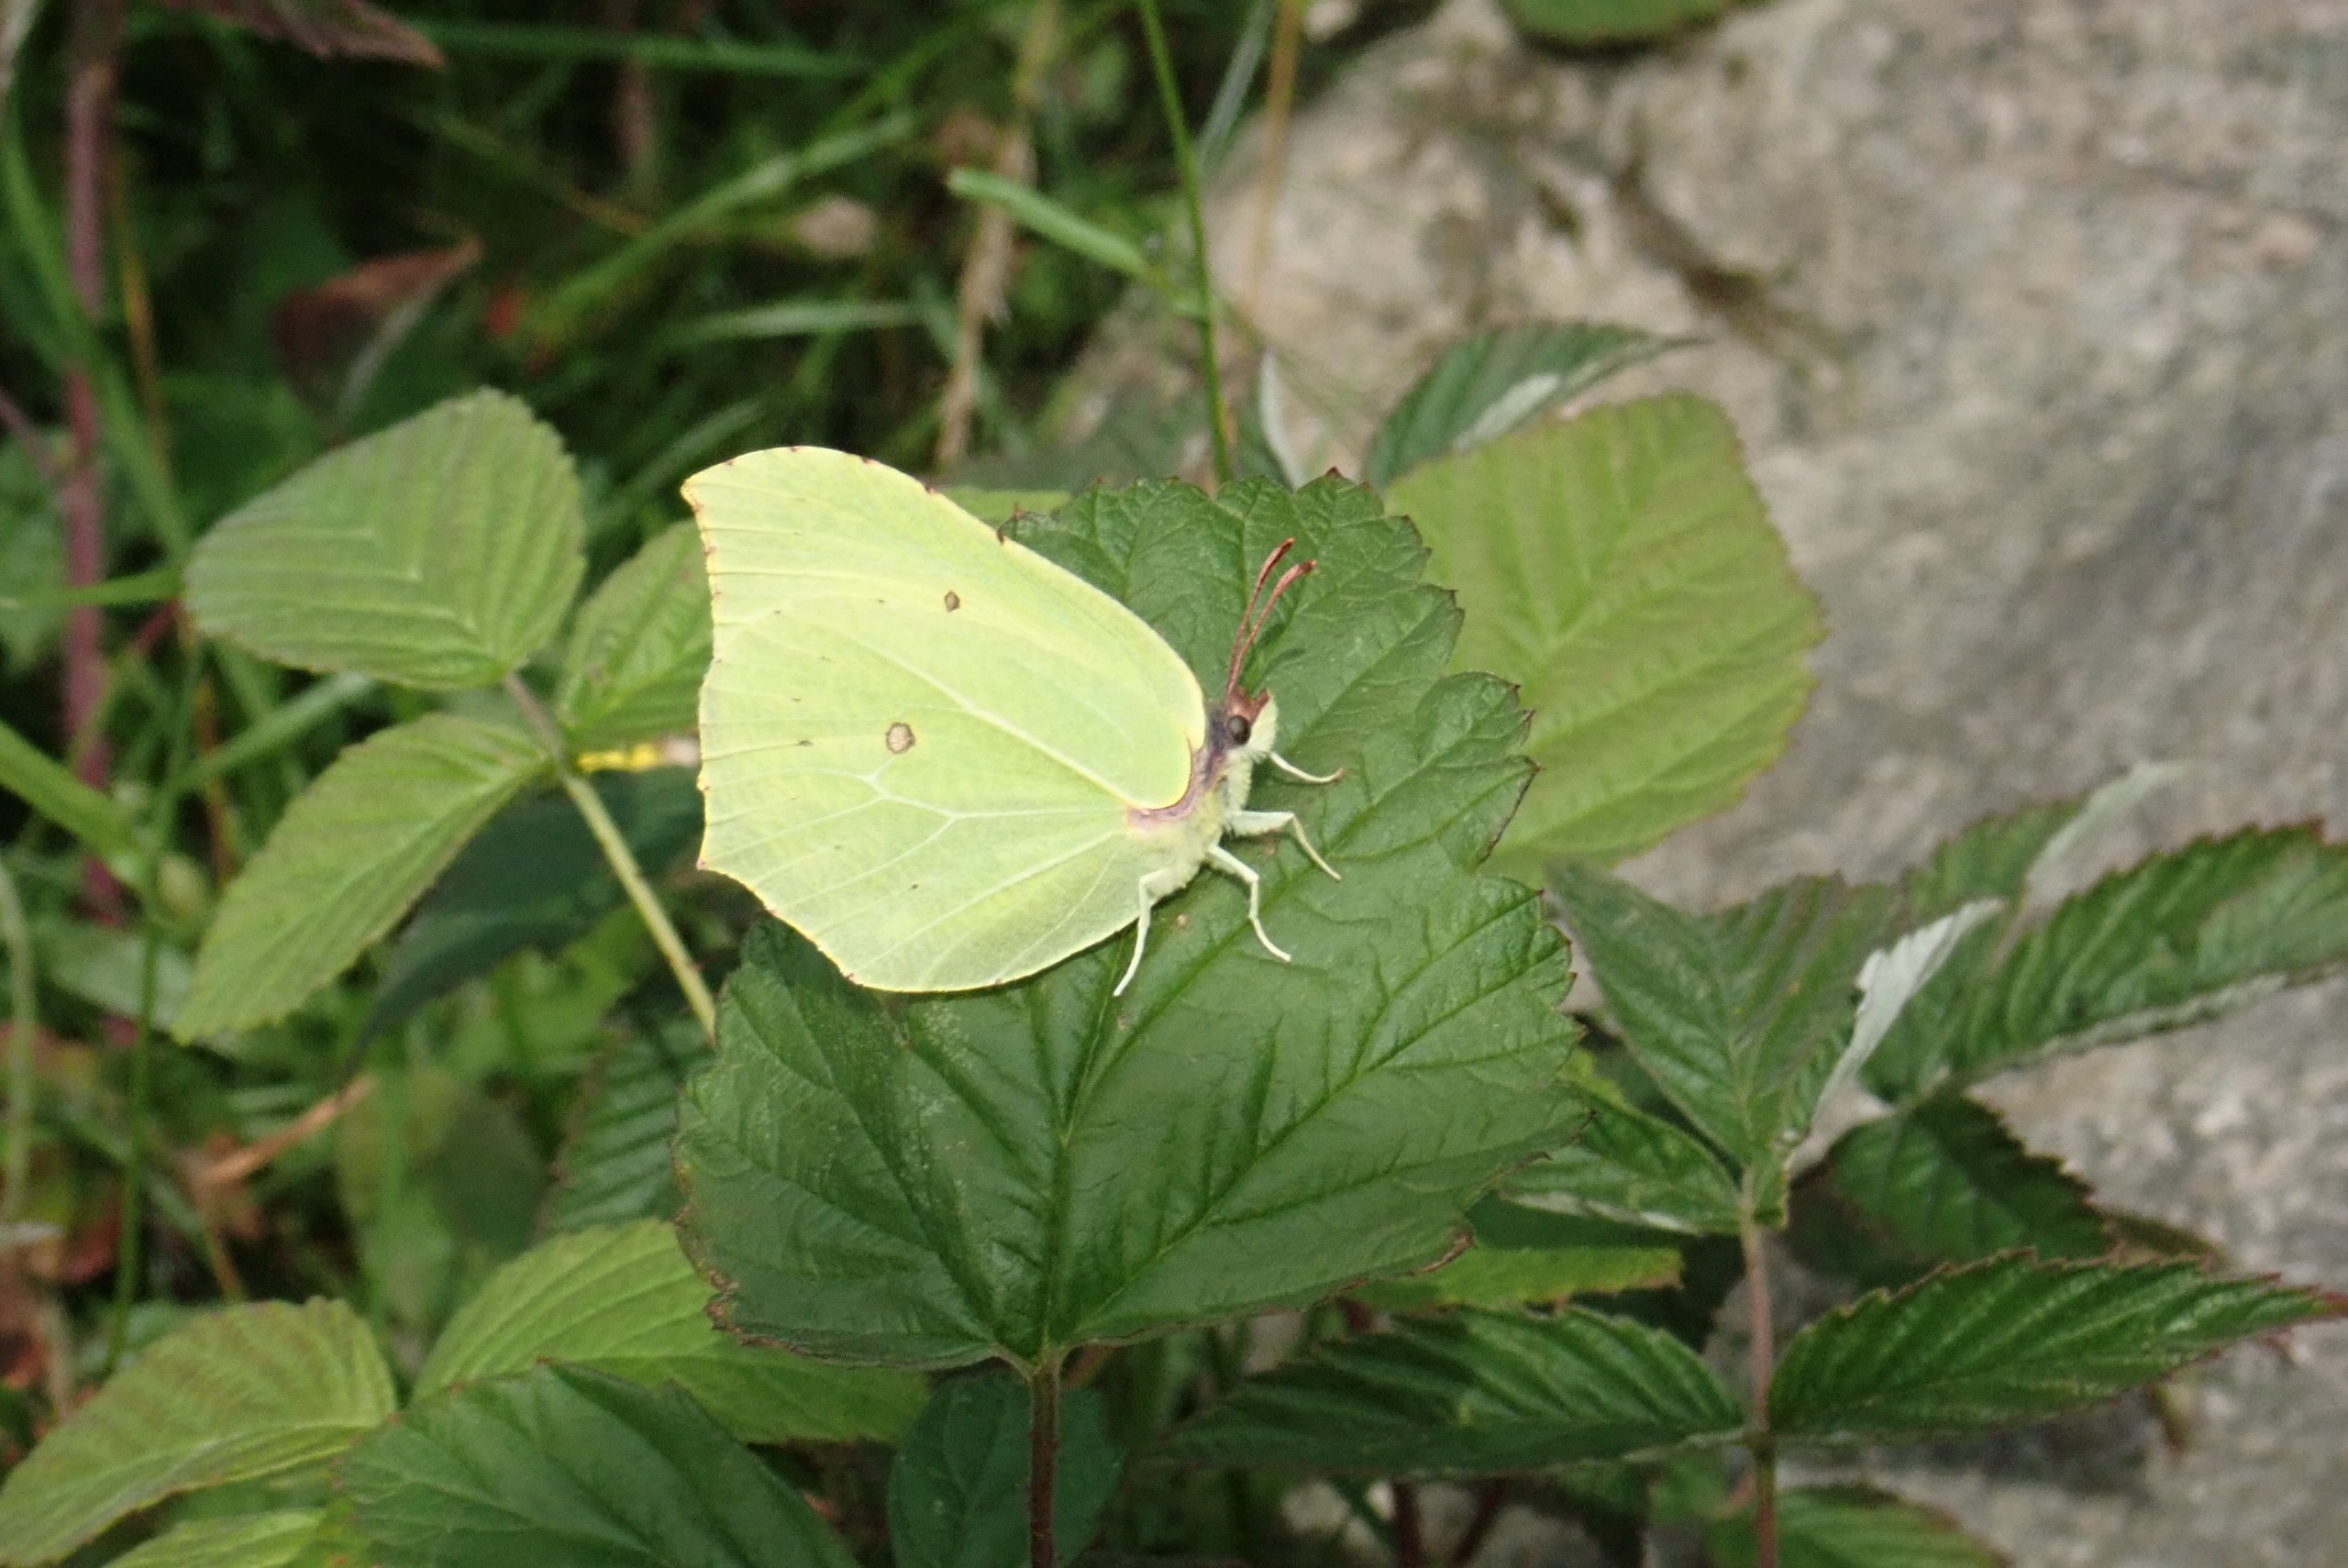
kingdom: Animalia
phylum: Arthropoda
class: Insecta
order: Lepidoptera
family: Pieridae
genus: Gonepteryx
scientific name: Gonepteryx rhamni
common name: Citronsommerfugl
